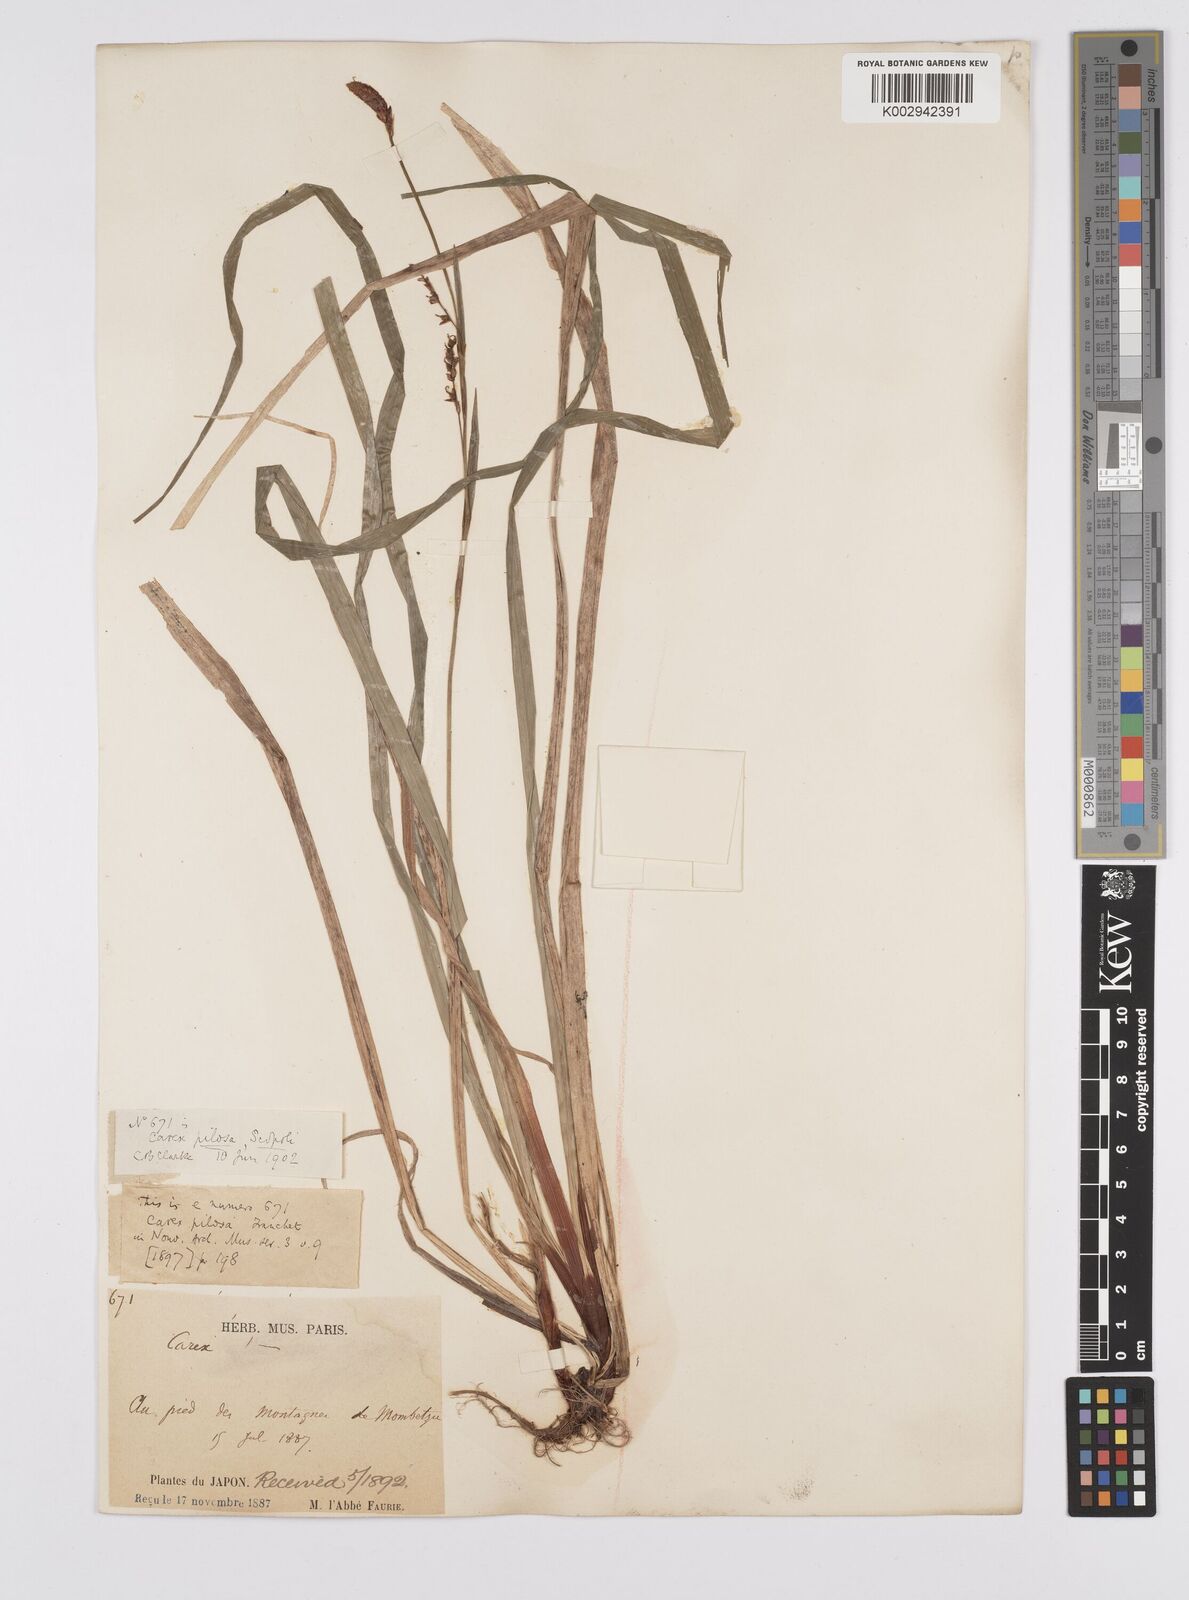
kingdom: Plantae
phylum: Tracheophyta
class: Liliopsida
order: Poales
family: Cyperaceae
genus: Carex
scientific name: Carex pilosa
